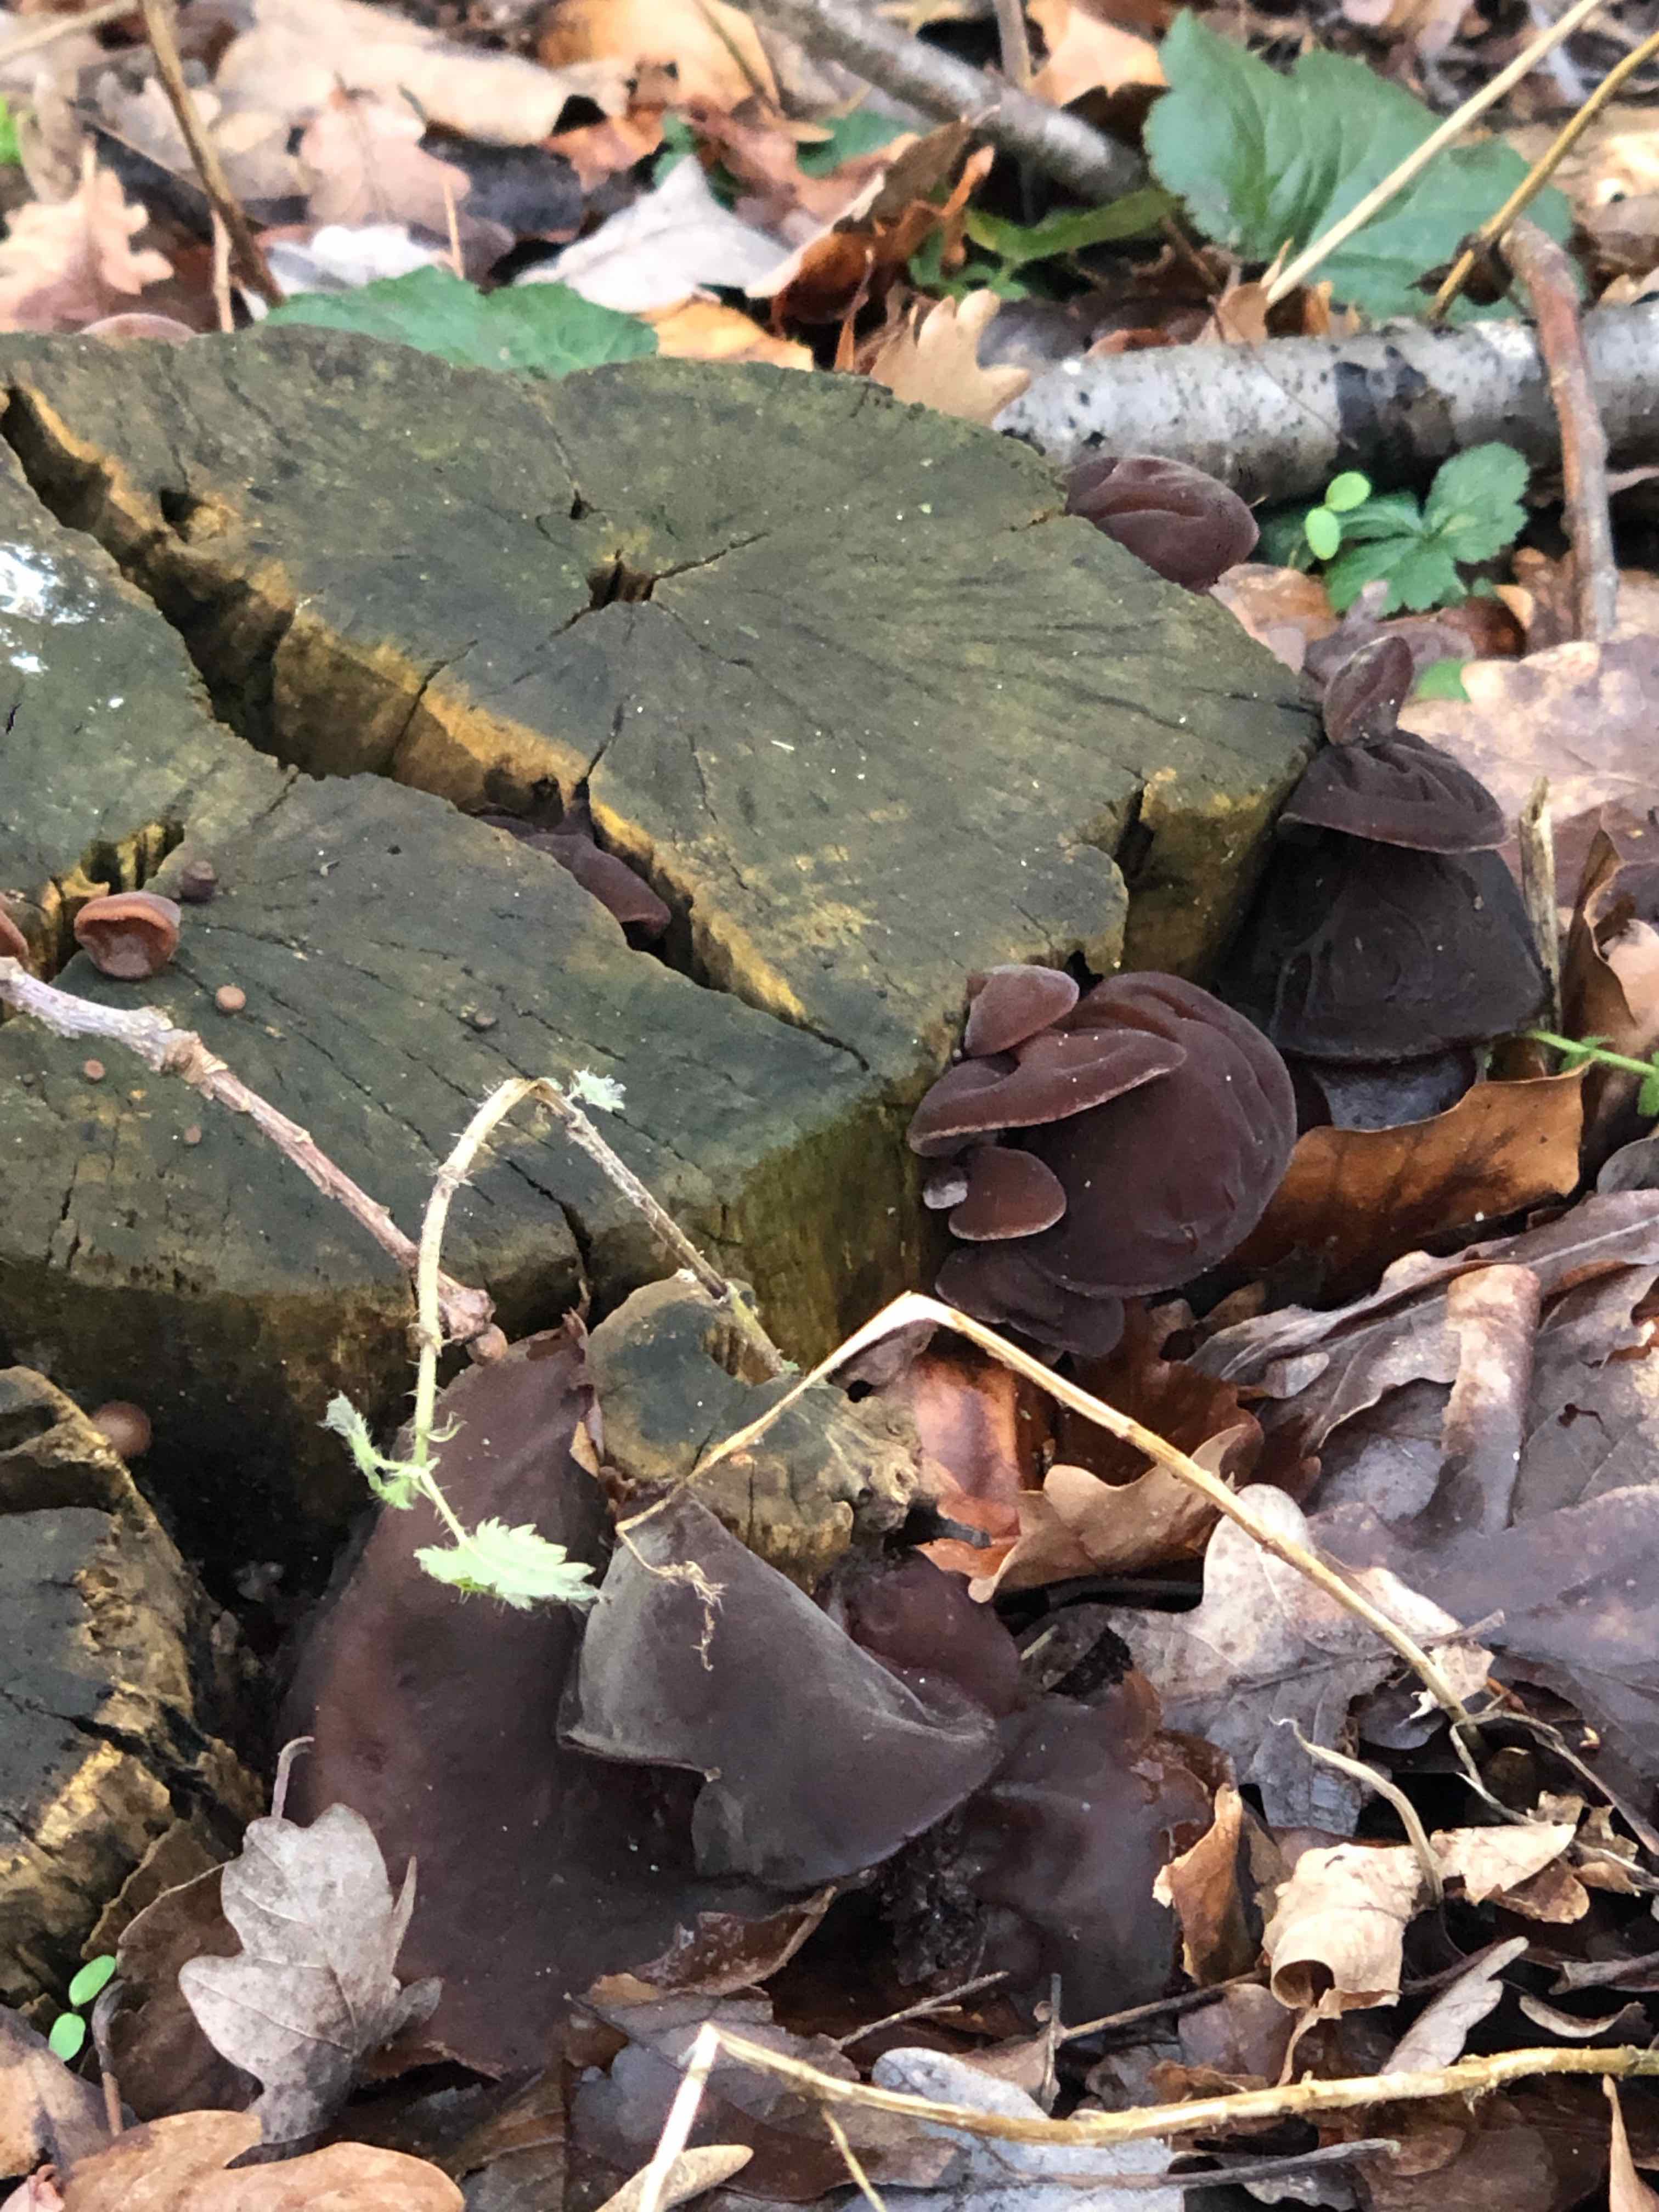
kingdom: Fungi
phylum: Basidiomycota
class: Agaricomycetes
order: Auriculariales
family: Auriculariaceae
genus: Auricularia
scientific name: Auricularia auricula-judae
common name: almindelig judasøre
